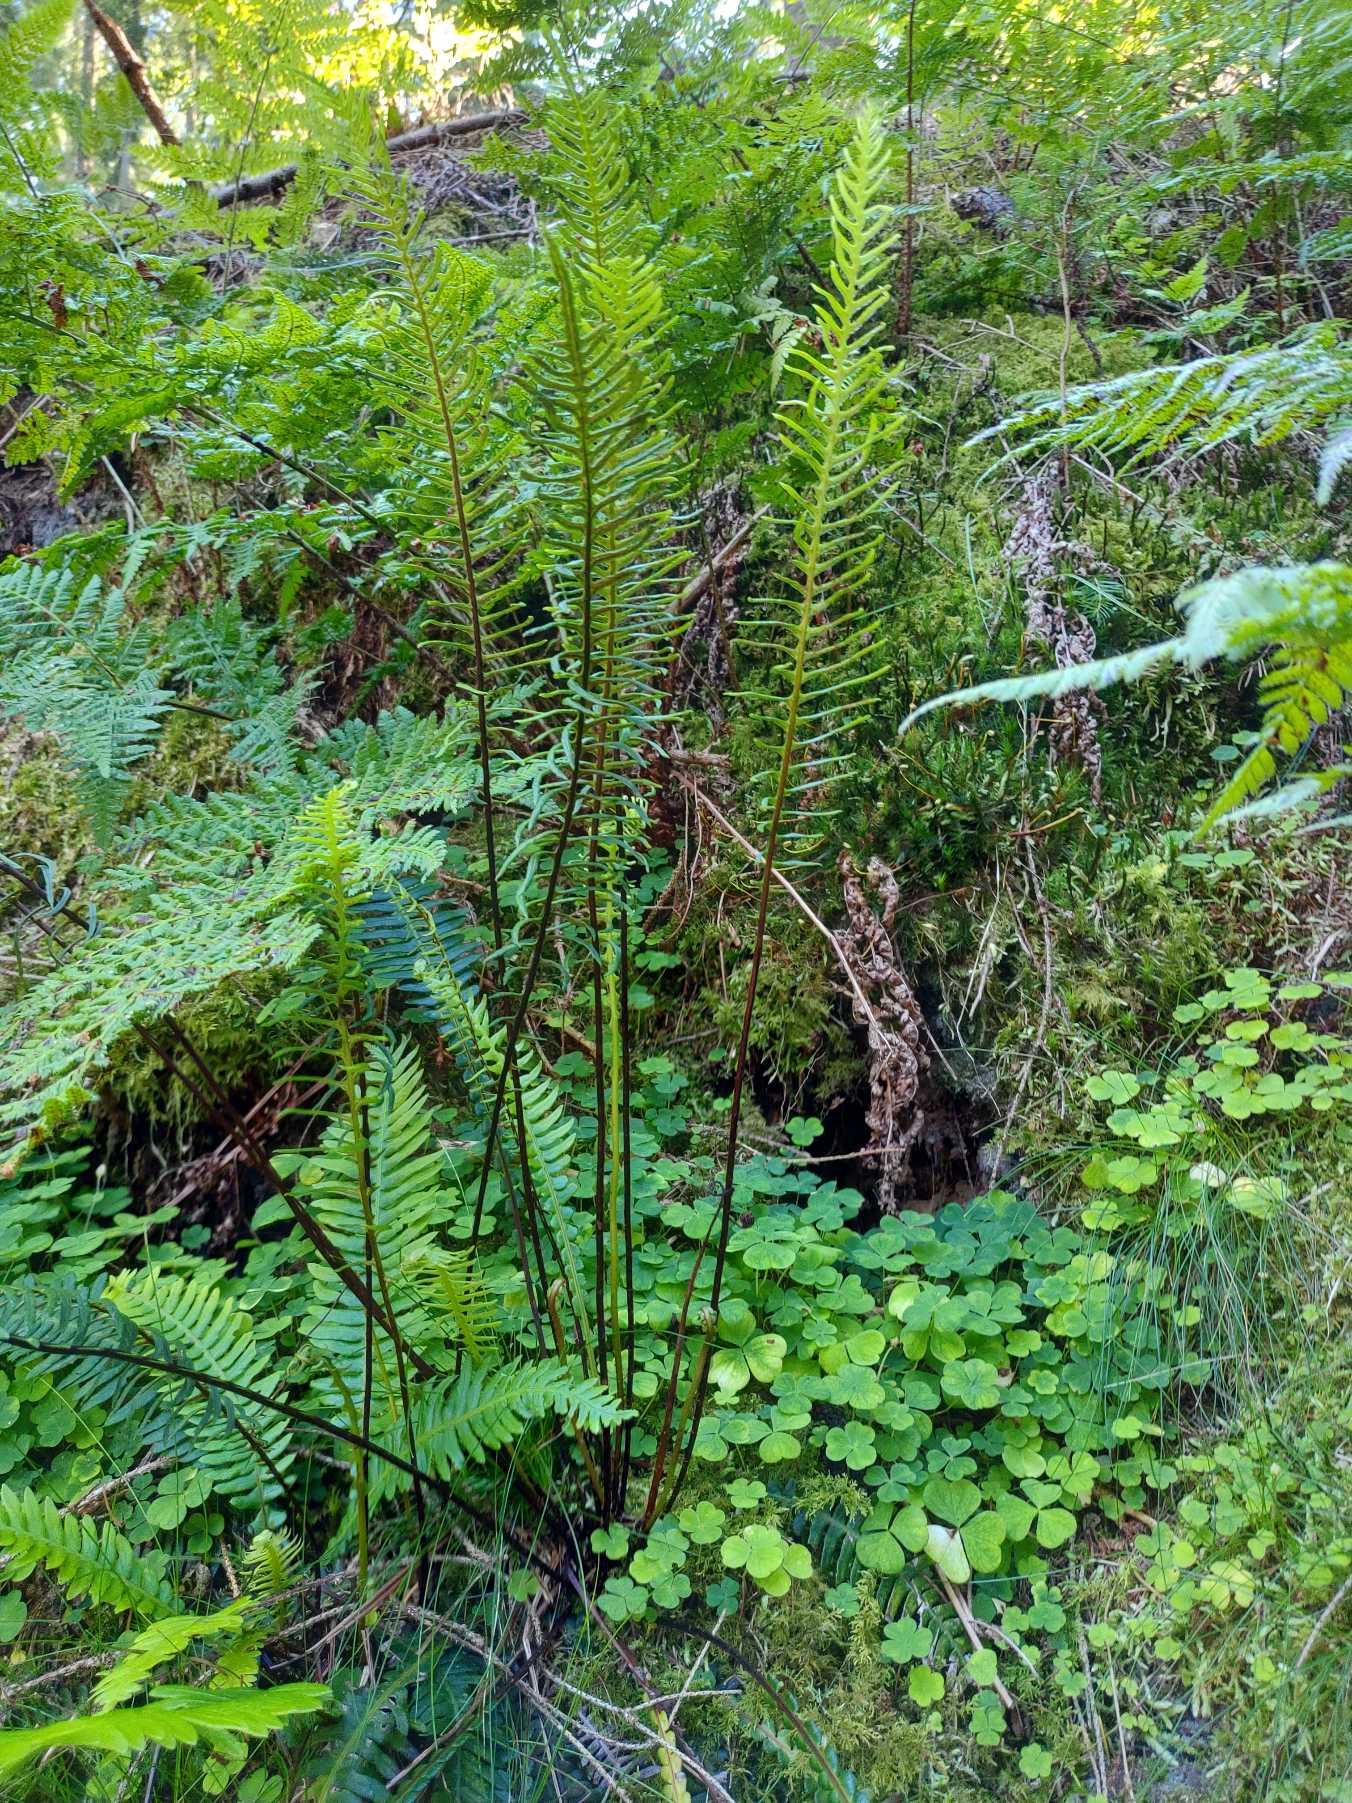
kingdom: Plantae
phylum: Tracheophyta
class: Polypodiopsida
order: Polypodiales
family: Blechnaceae
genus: Struthiopteris
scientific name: Struthiopteris spicant
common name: Kambregne
